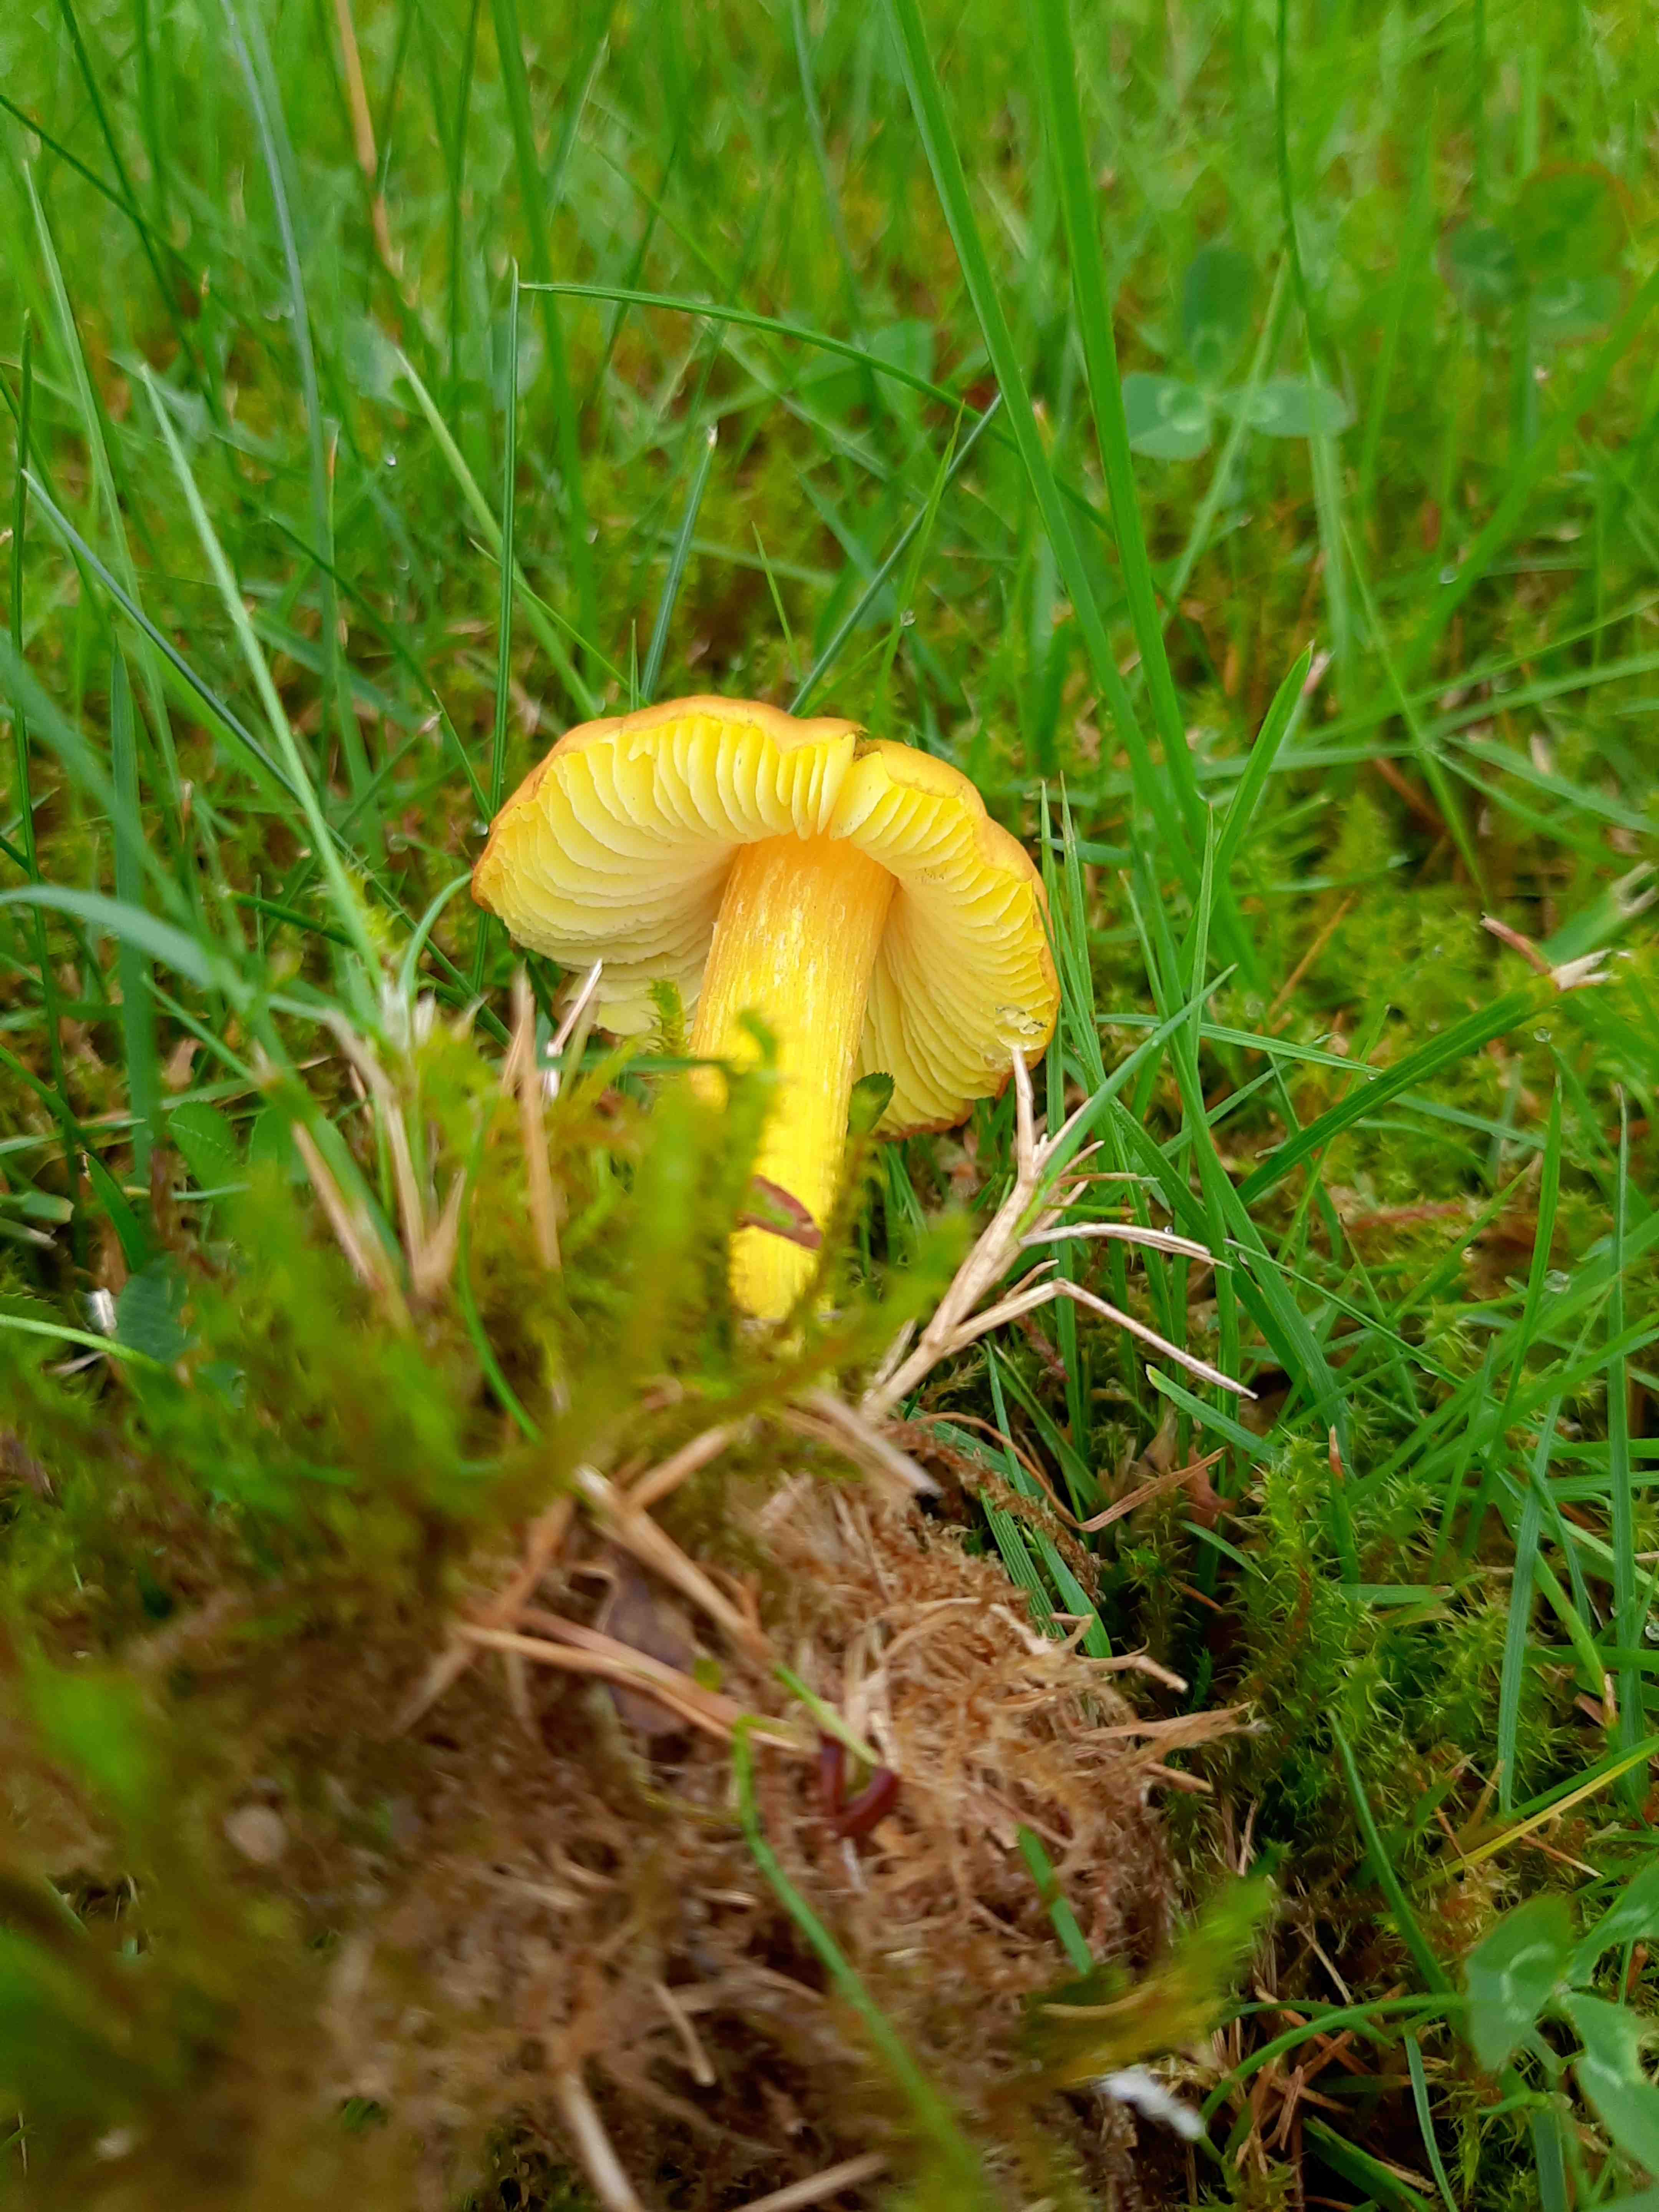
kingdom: Fungi
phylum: Basidiomycota
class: Agaricomycetes
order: Agaricales
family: Hygrophoraceae
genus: Hygrocybe
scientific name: Hygrocybe conica
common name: kegle-vokshat
